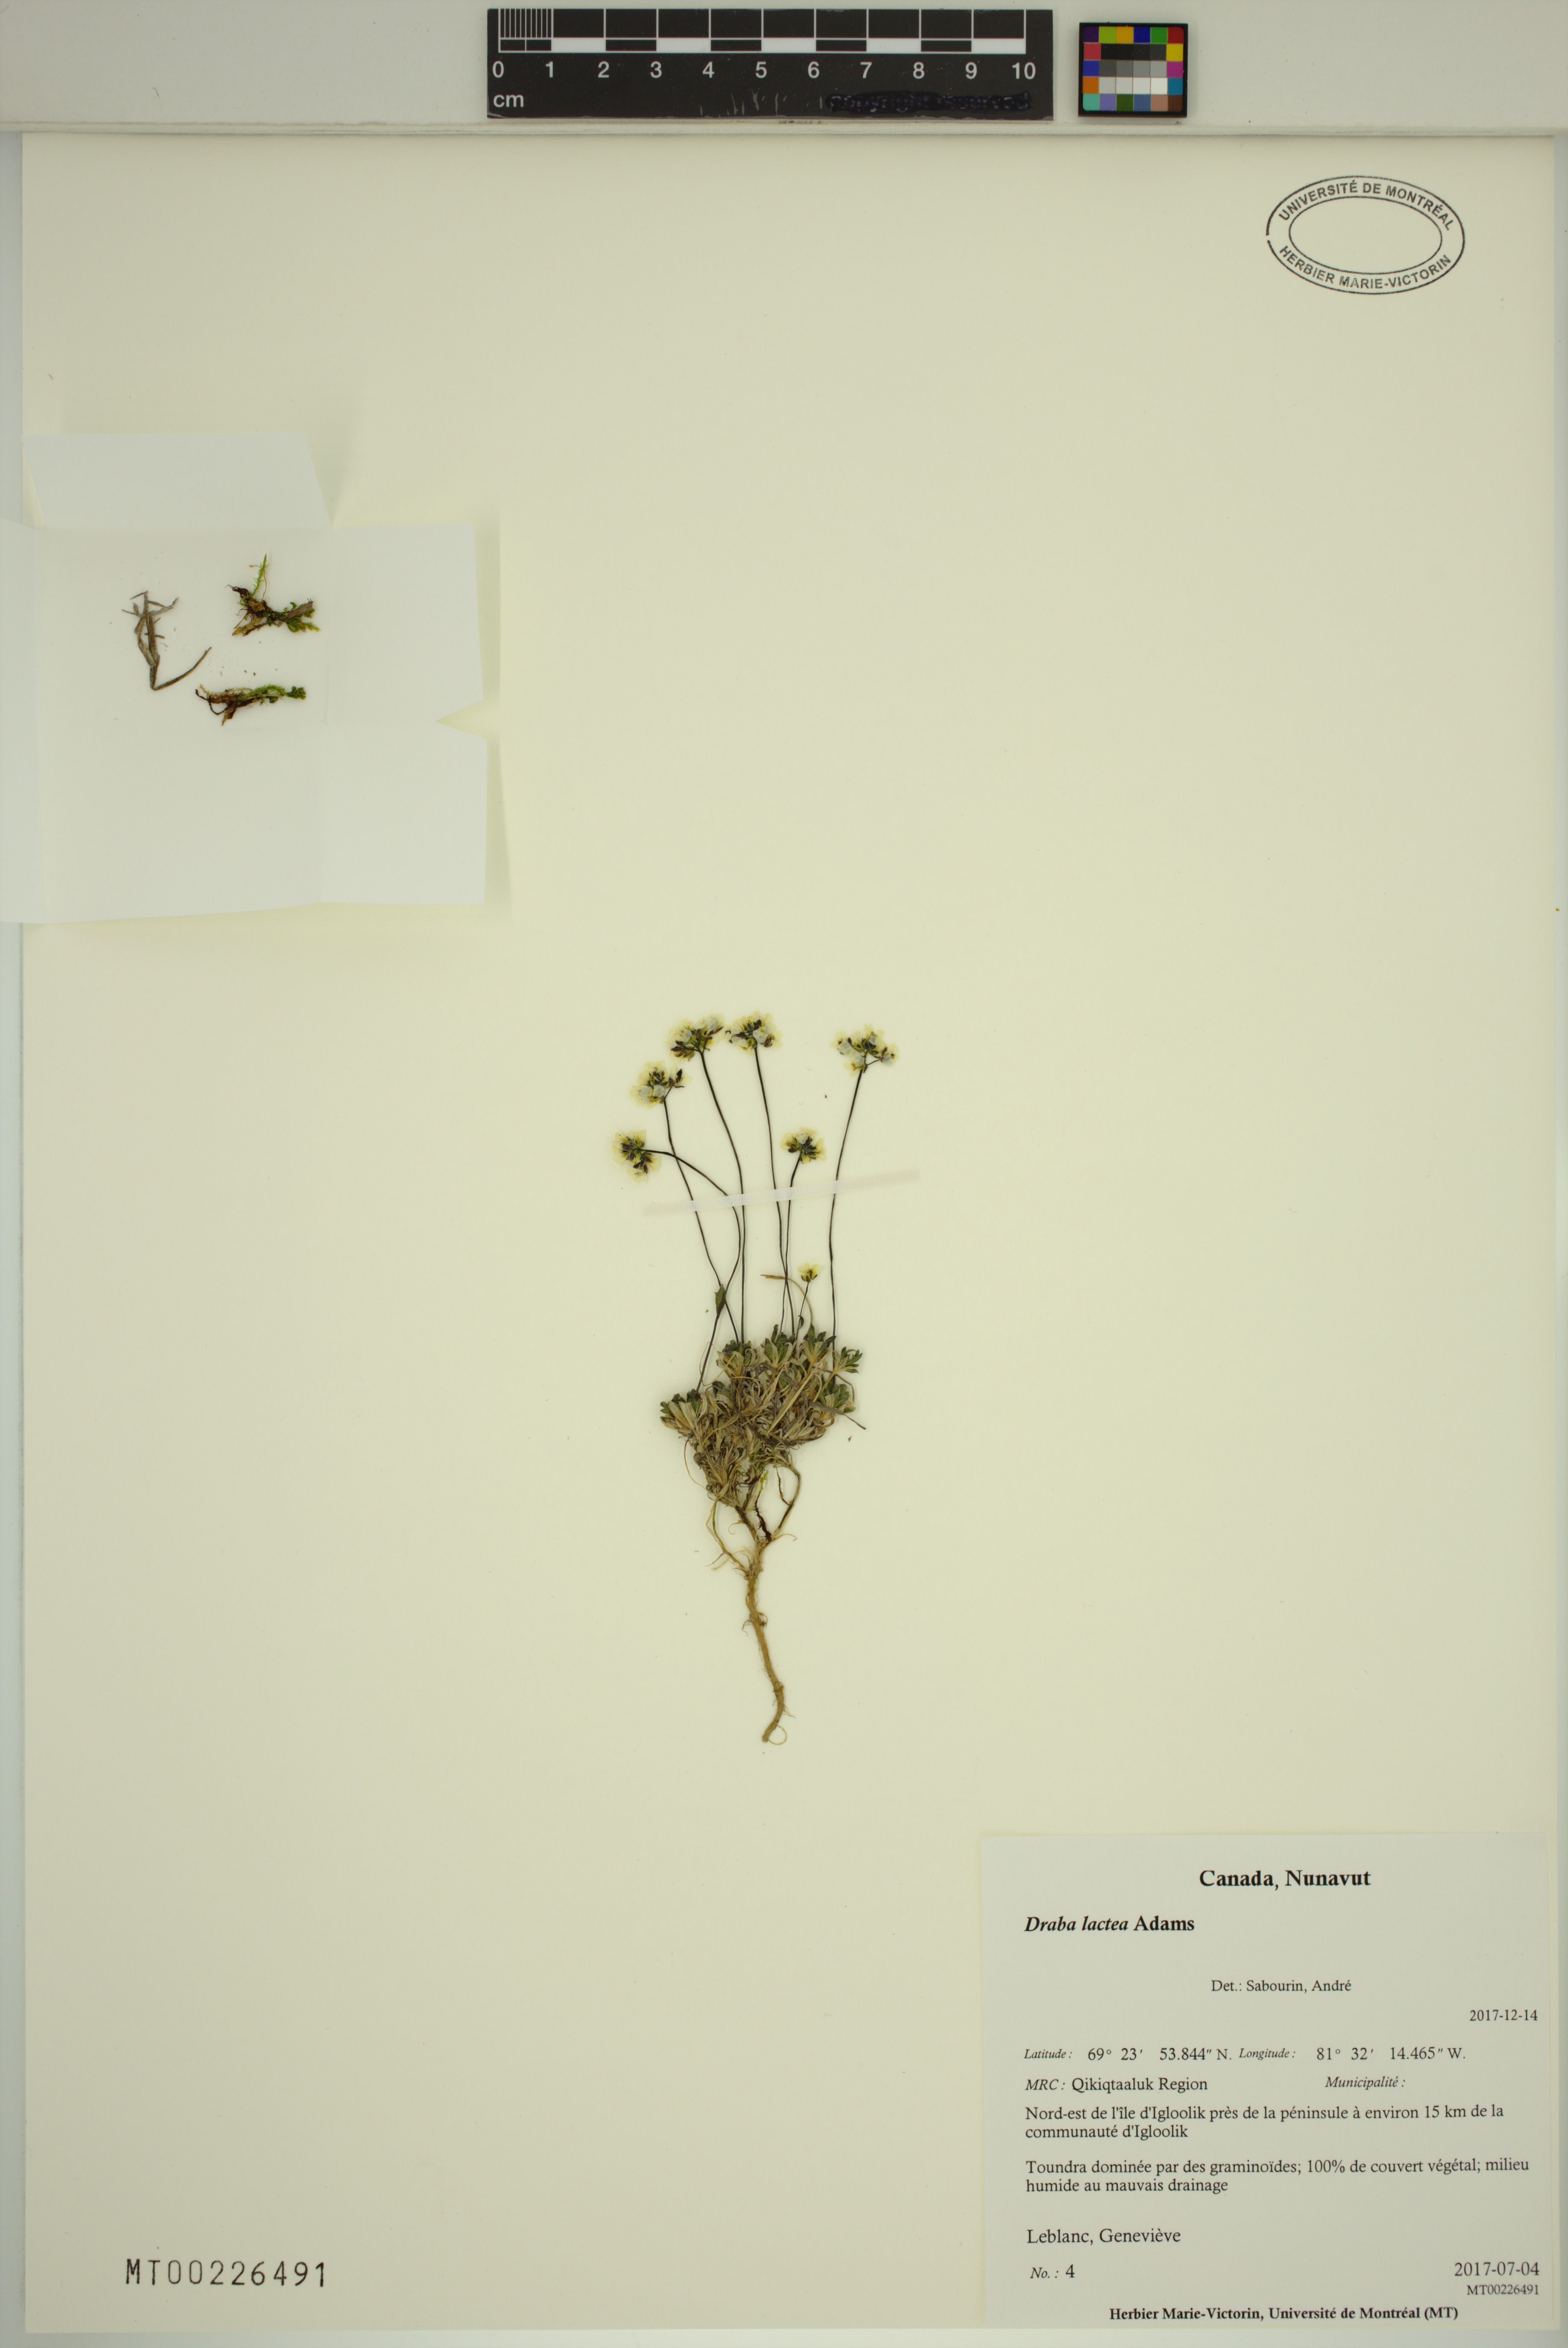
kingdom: Plantae
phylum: Tracheophyta
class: Magnoliopsida
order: Brassicales
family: Brassicaceae
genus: Draba
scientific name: Draba lactea
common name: Milky draba
